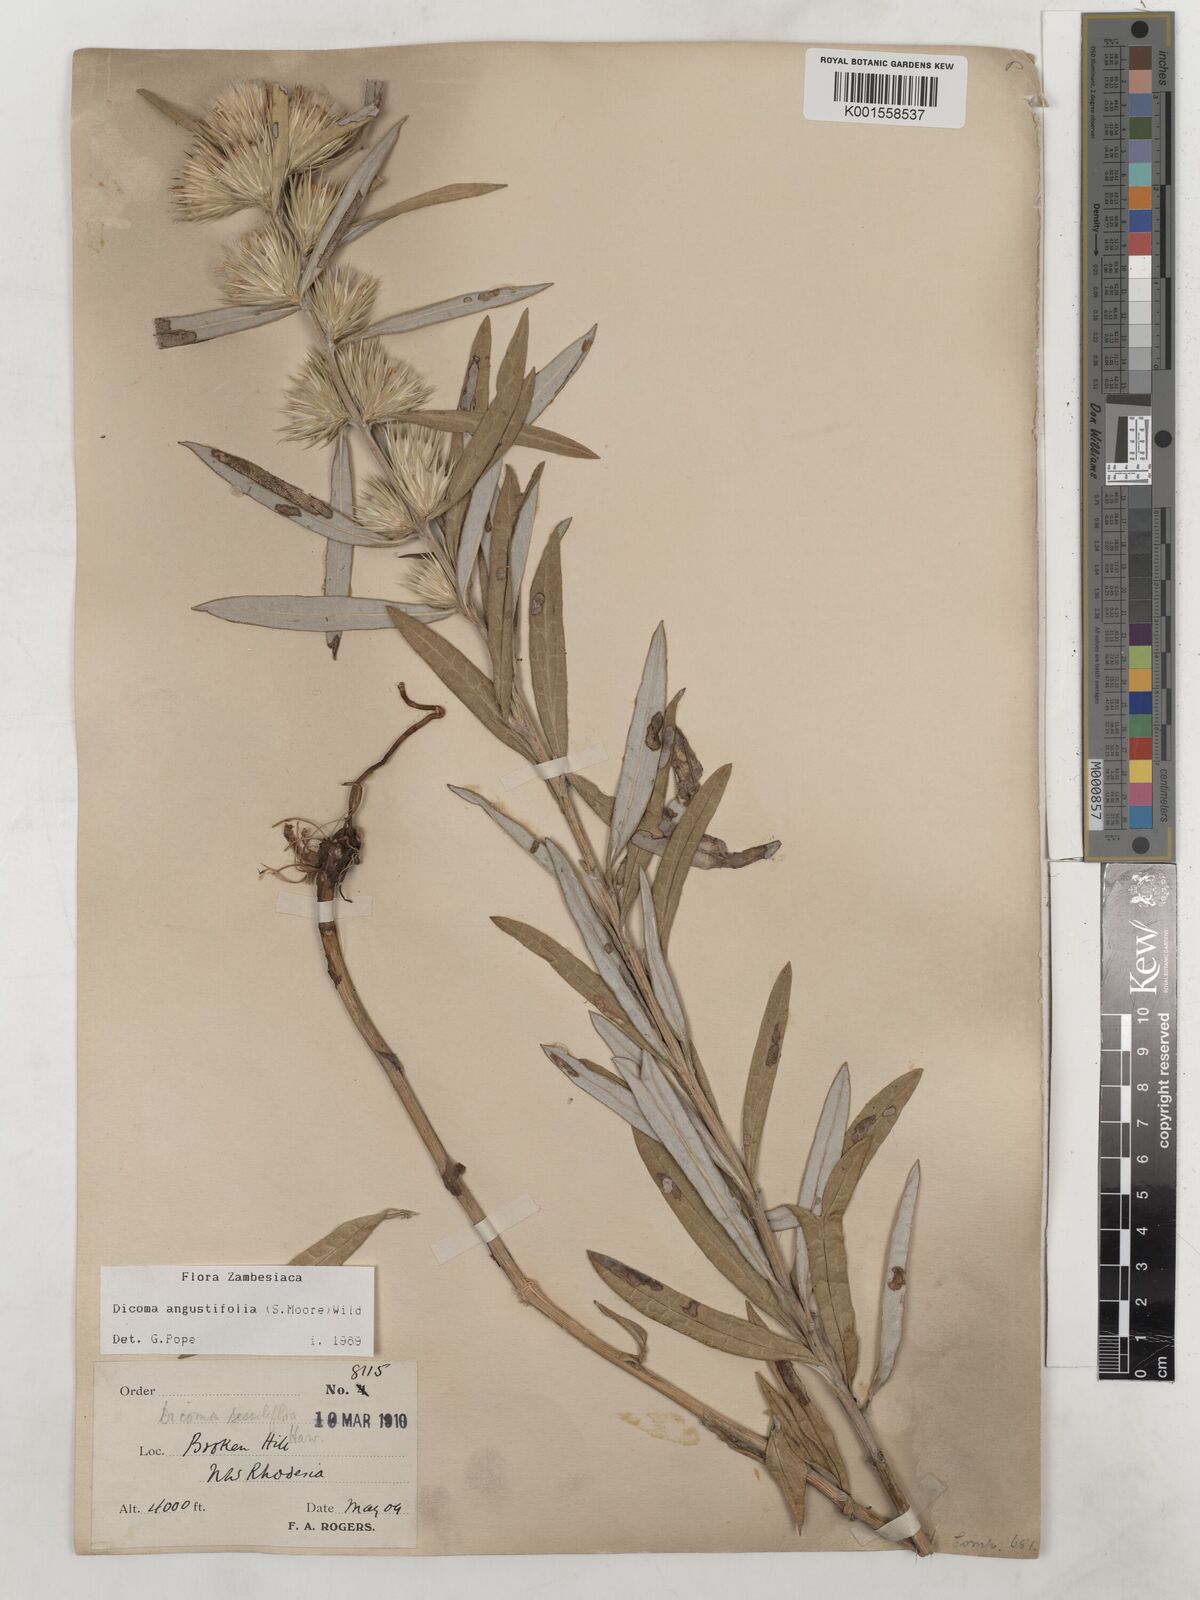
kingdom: Plantae
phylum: Tracheophyta
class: Magnoliopsida
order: Asterales
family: Asteraceae
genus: Macledium
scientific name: Macledium poggei
